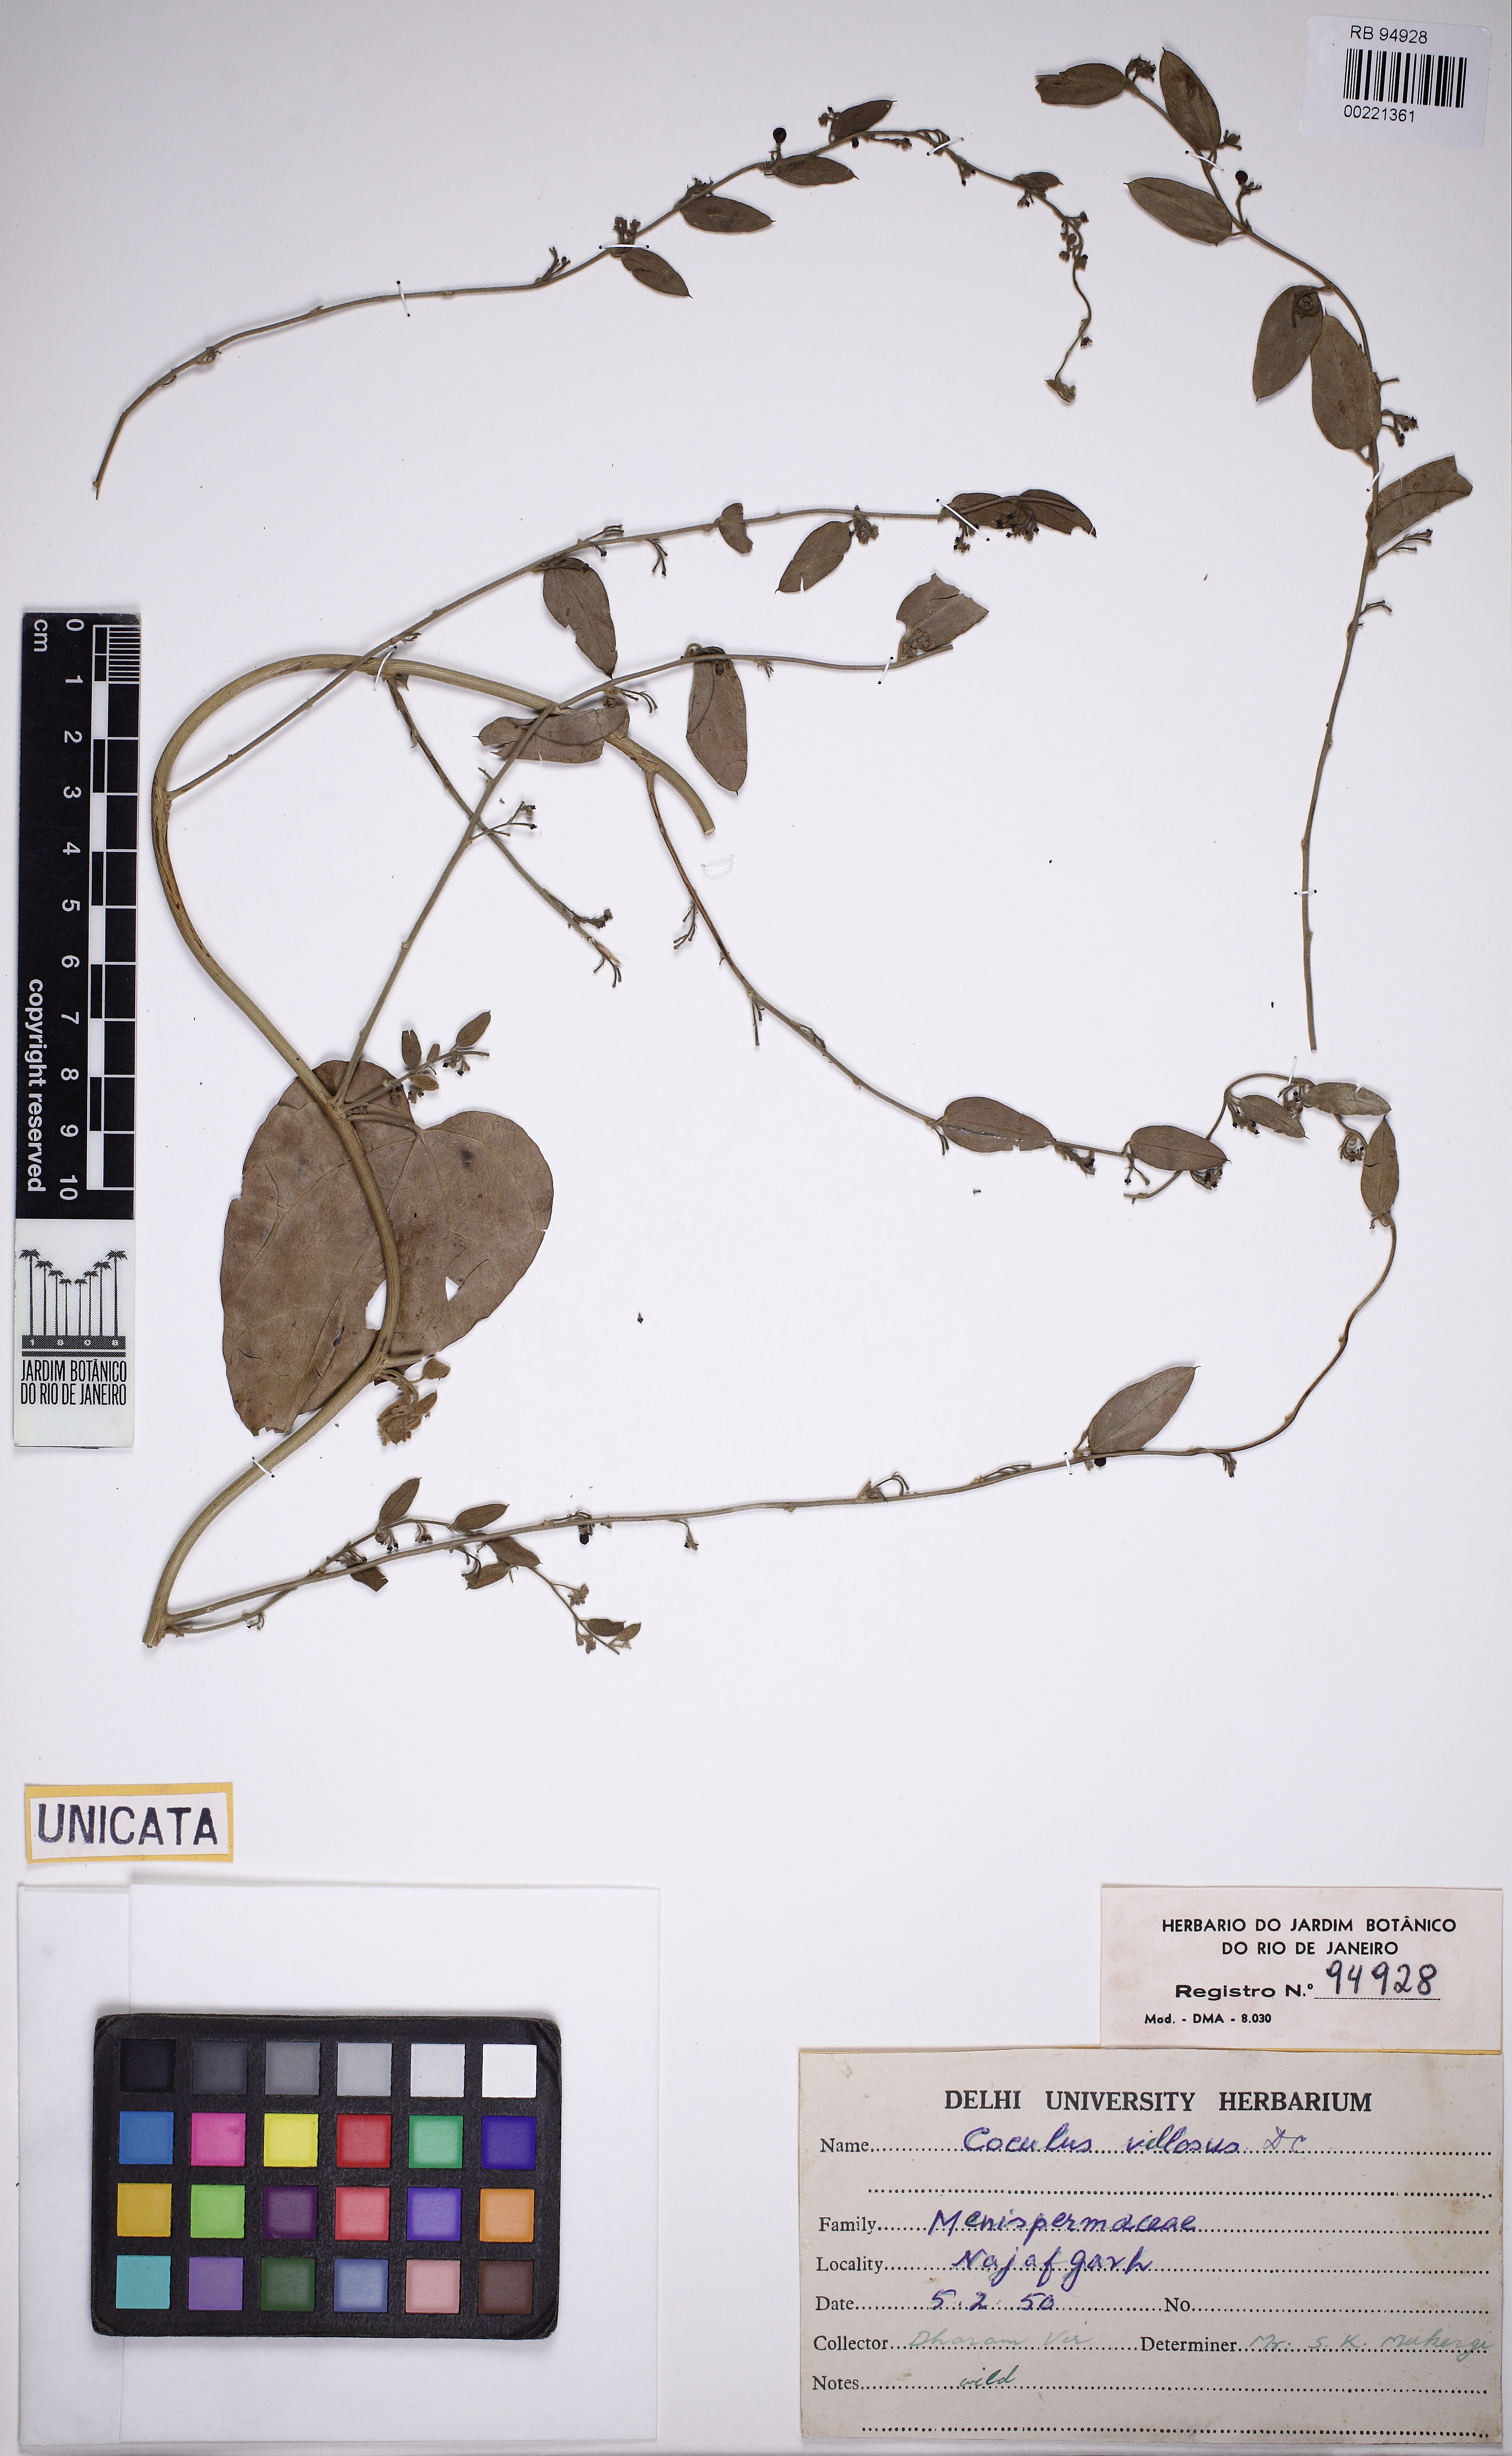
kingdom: Plantae
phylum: Tracheophyta
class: Magnoliopsida
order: Ranunculales
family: Menispermaceae
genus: Cocculus
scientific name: Cocculus hirsutus
